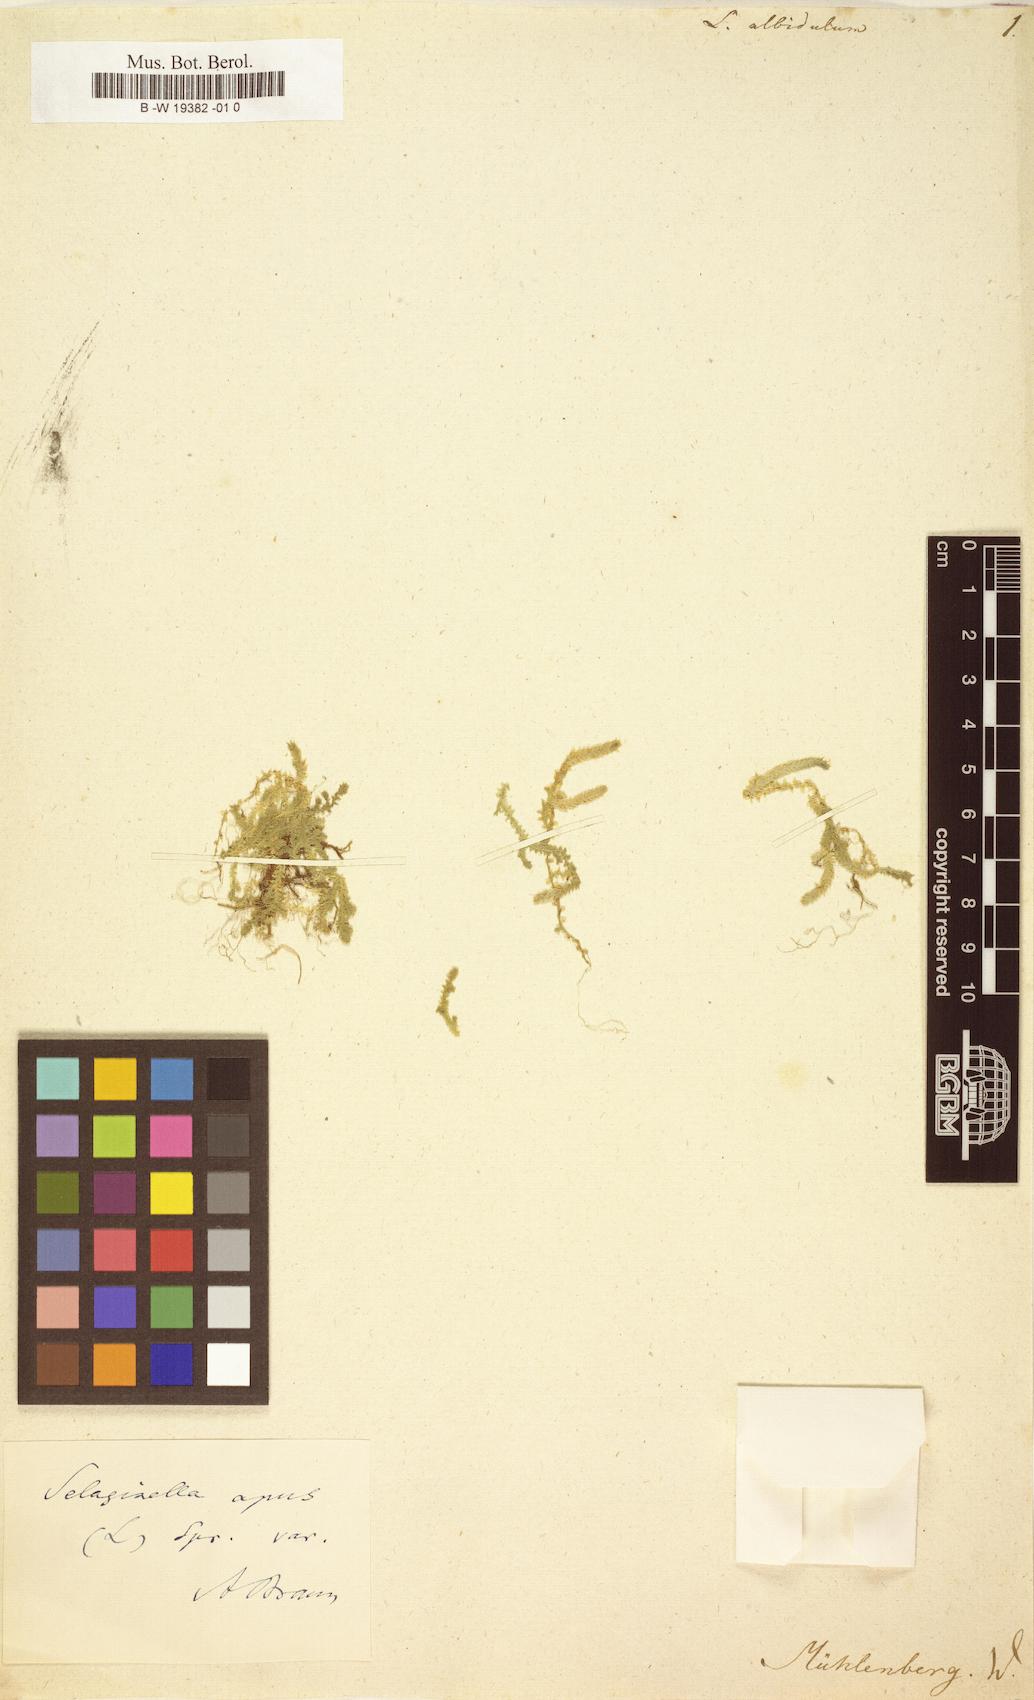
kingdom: Plantae
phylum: Tracheophyta
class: Lycopodiopsida
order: Lycopodiales
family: Lycopodiaceae
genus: Lycopodium
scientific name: Lycopodium vestitum
